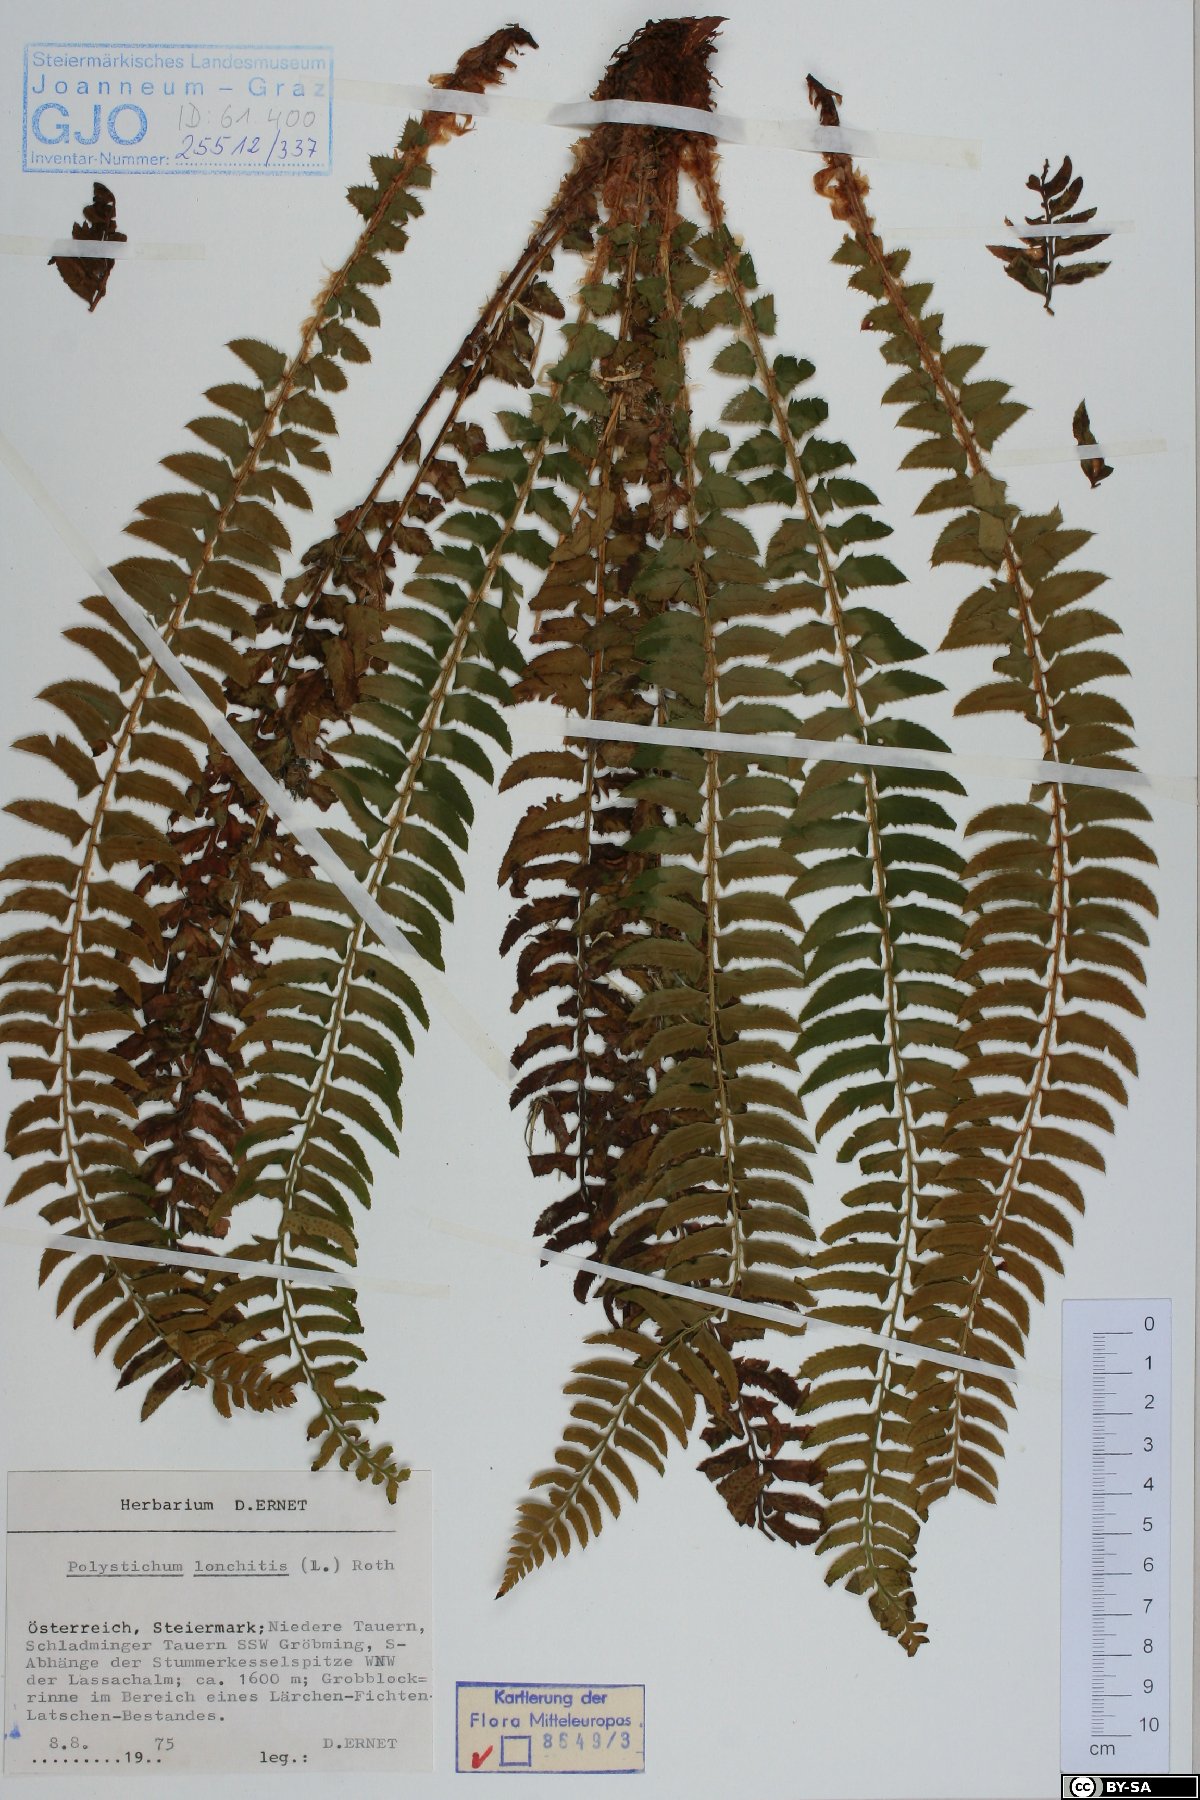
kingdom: Plantae
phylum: Tracheophyta
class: Polypodiopsida
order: Polypodiales
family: Dryopteridaceae
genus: Polystichum
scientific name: Polystichum lonchitis
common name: Holly fern
